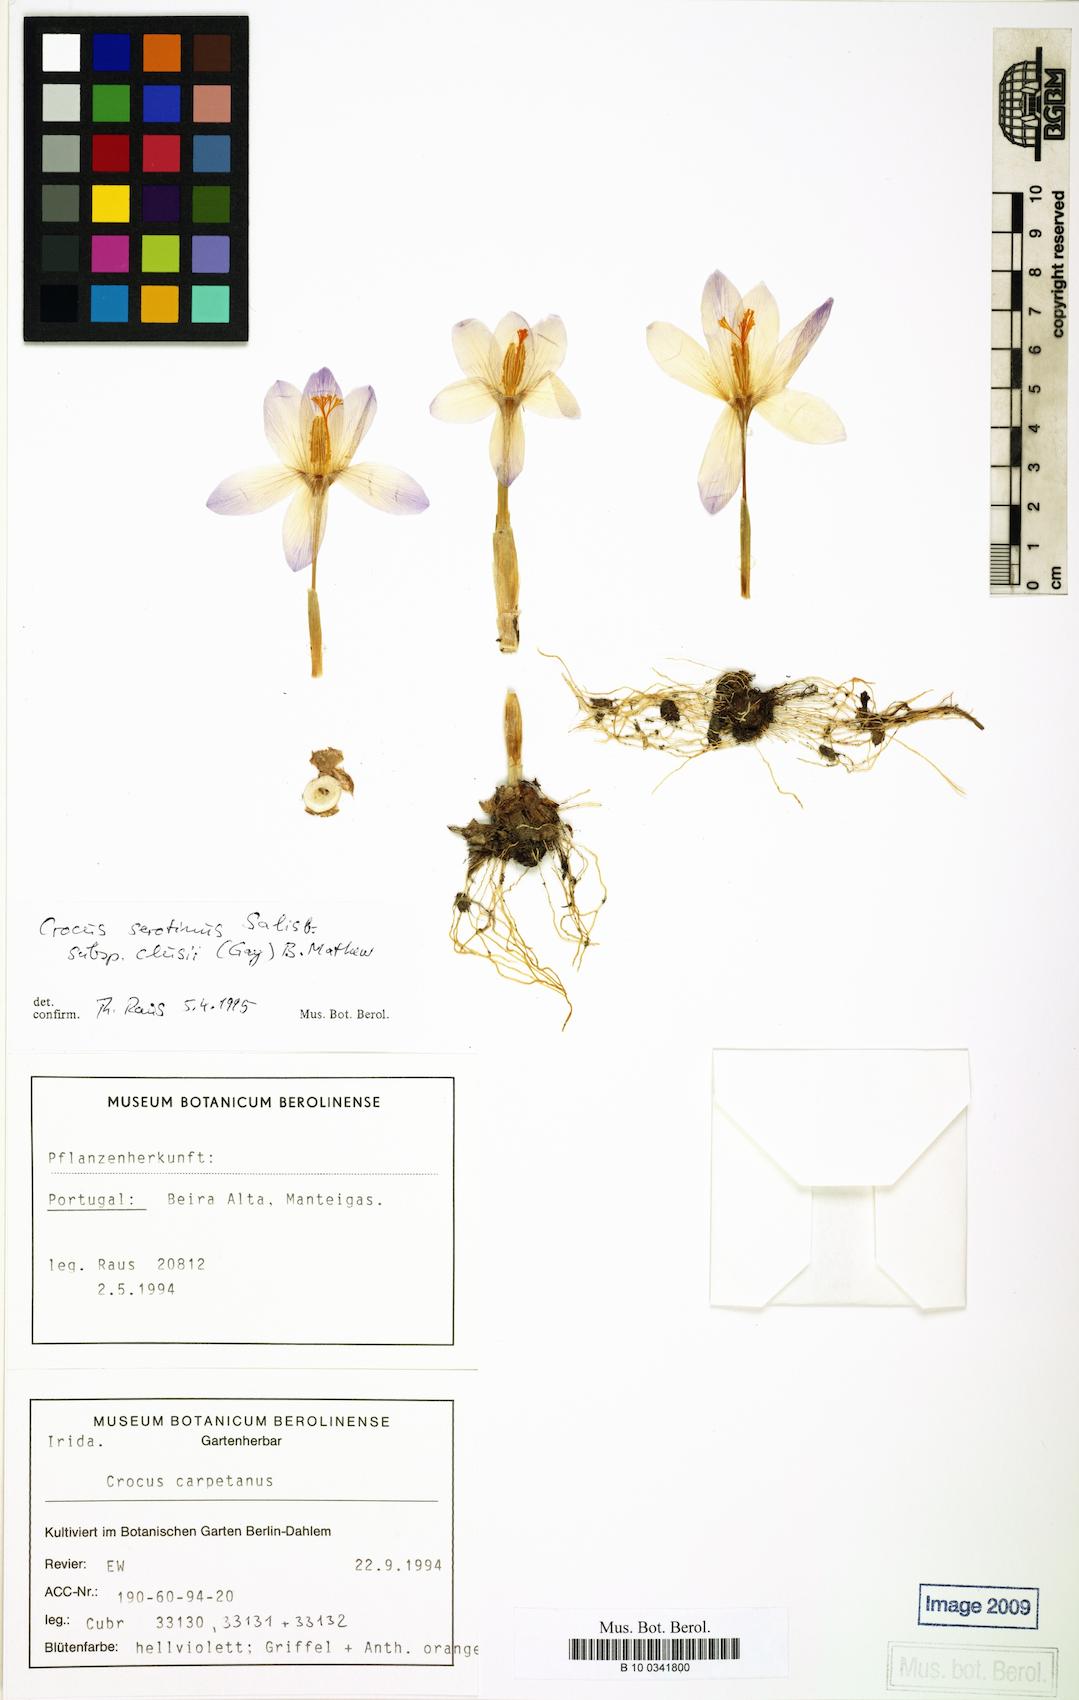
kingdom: Plantae
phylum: Tracheophyta
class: Liliopsida
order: Asparagales
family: Iridaceae
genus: Crocus
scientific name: Crocus clusii
